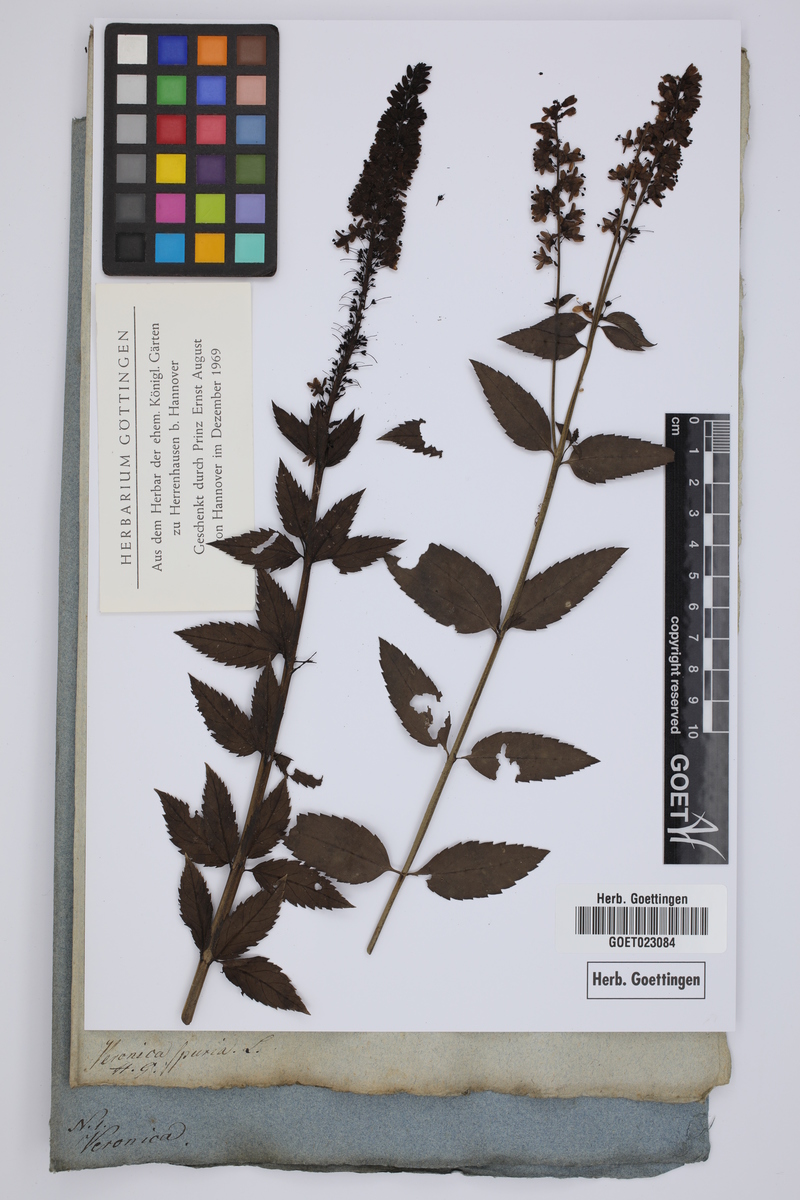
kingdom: Plantae
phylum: Tracheophyta
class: Magnoliopsida
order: Lamiales
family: Plantaginaceae
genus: Veronica
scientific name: Veronica spuria
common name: Bastard speedwell
